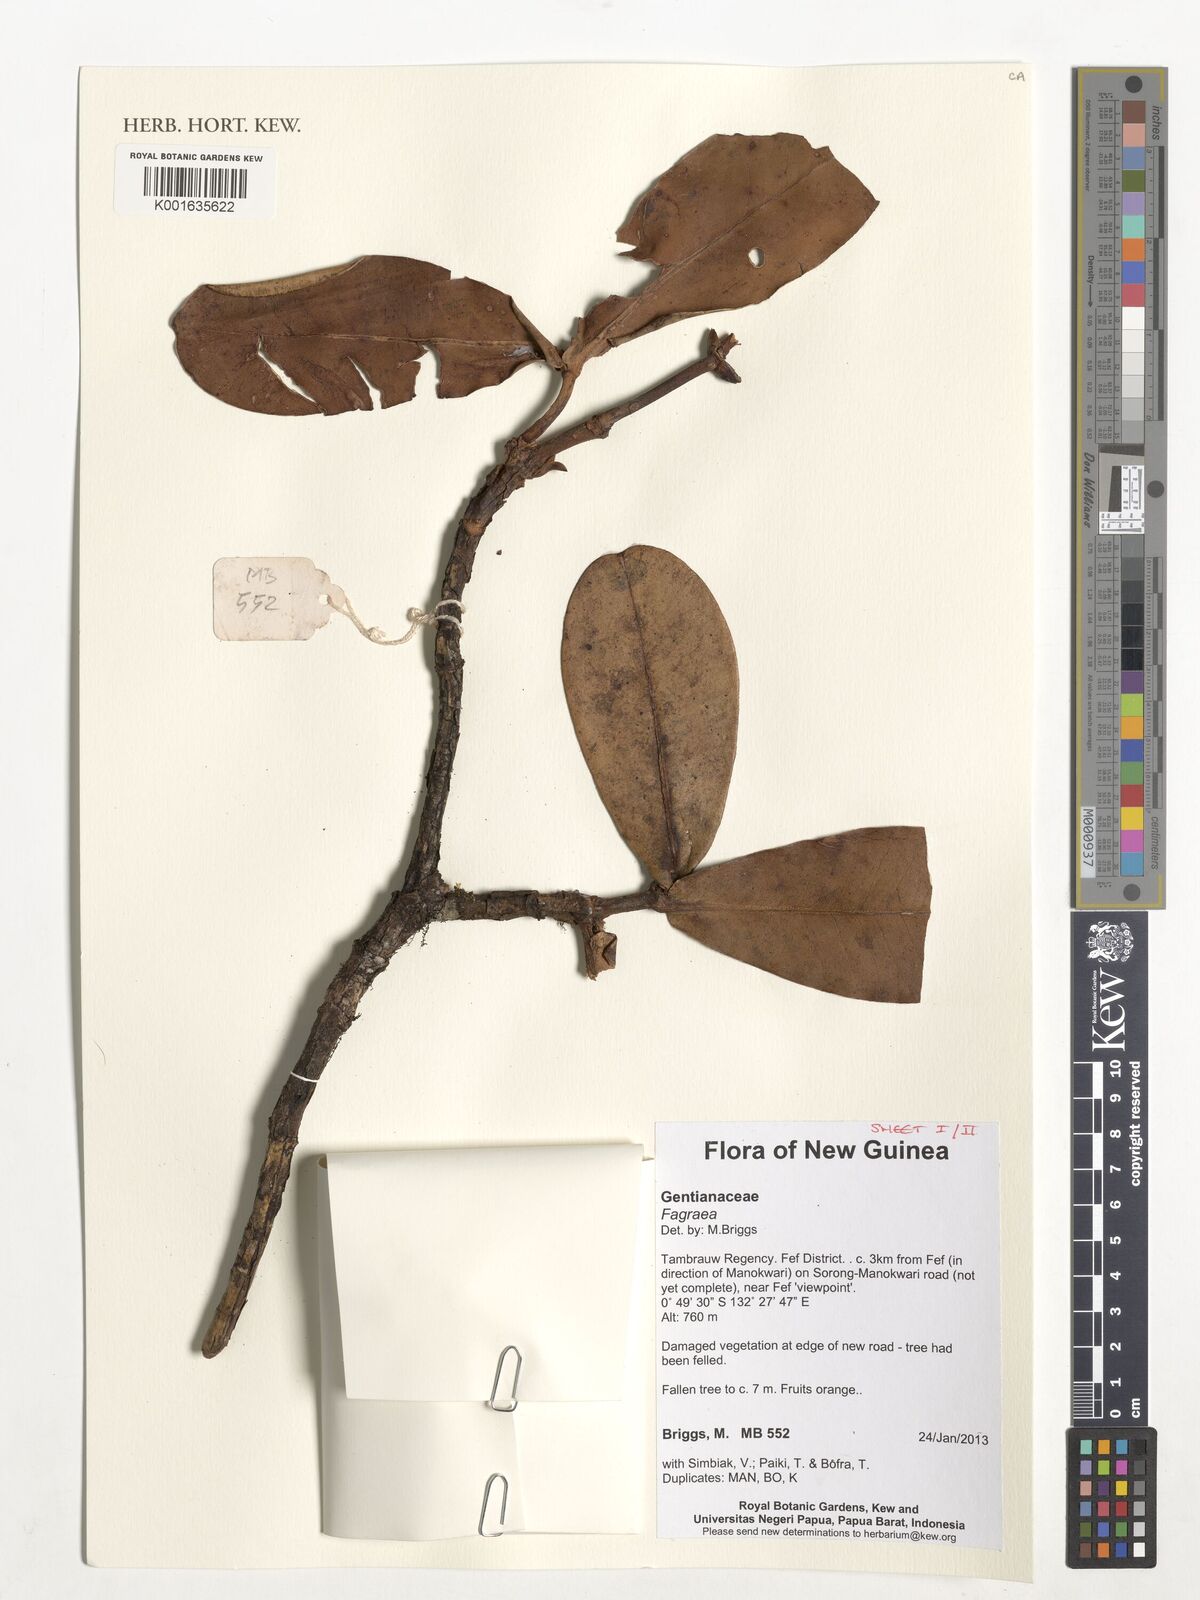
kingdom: Plantae
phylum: Tracheophyta
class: Magnoliopsida
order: Gentianales
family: Gentianaceae
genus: Fagraea
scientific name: Fagraea
